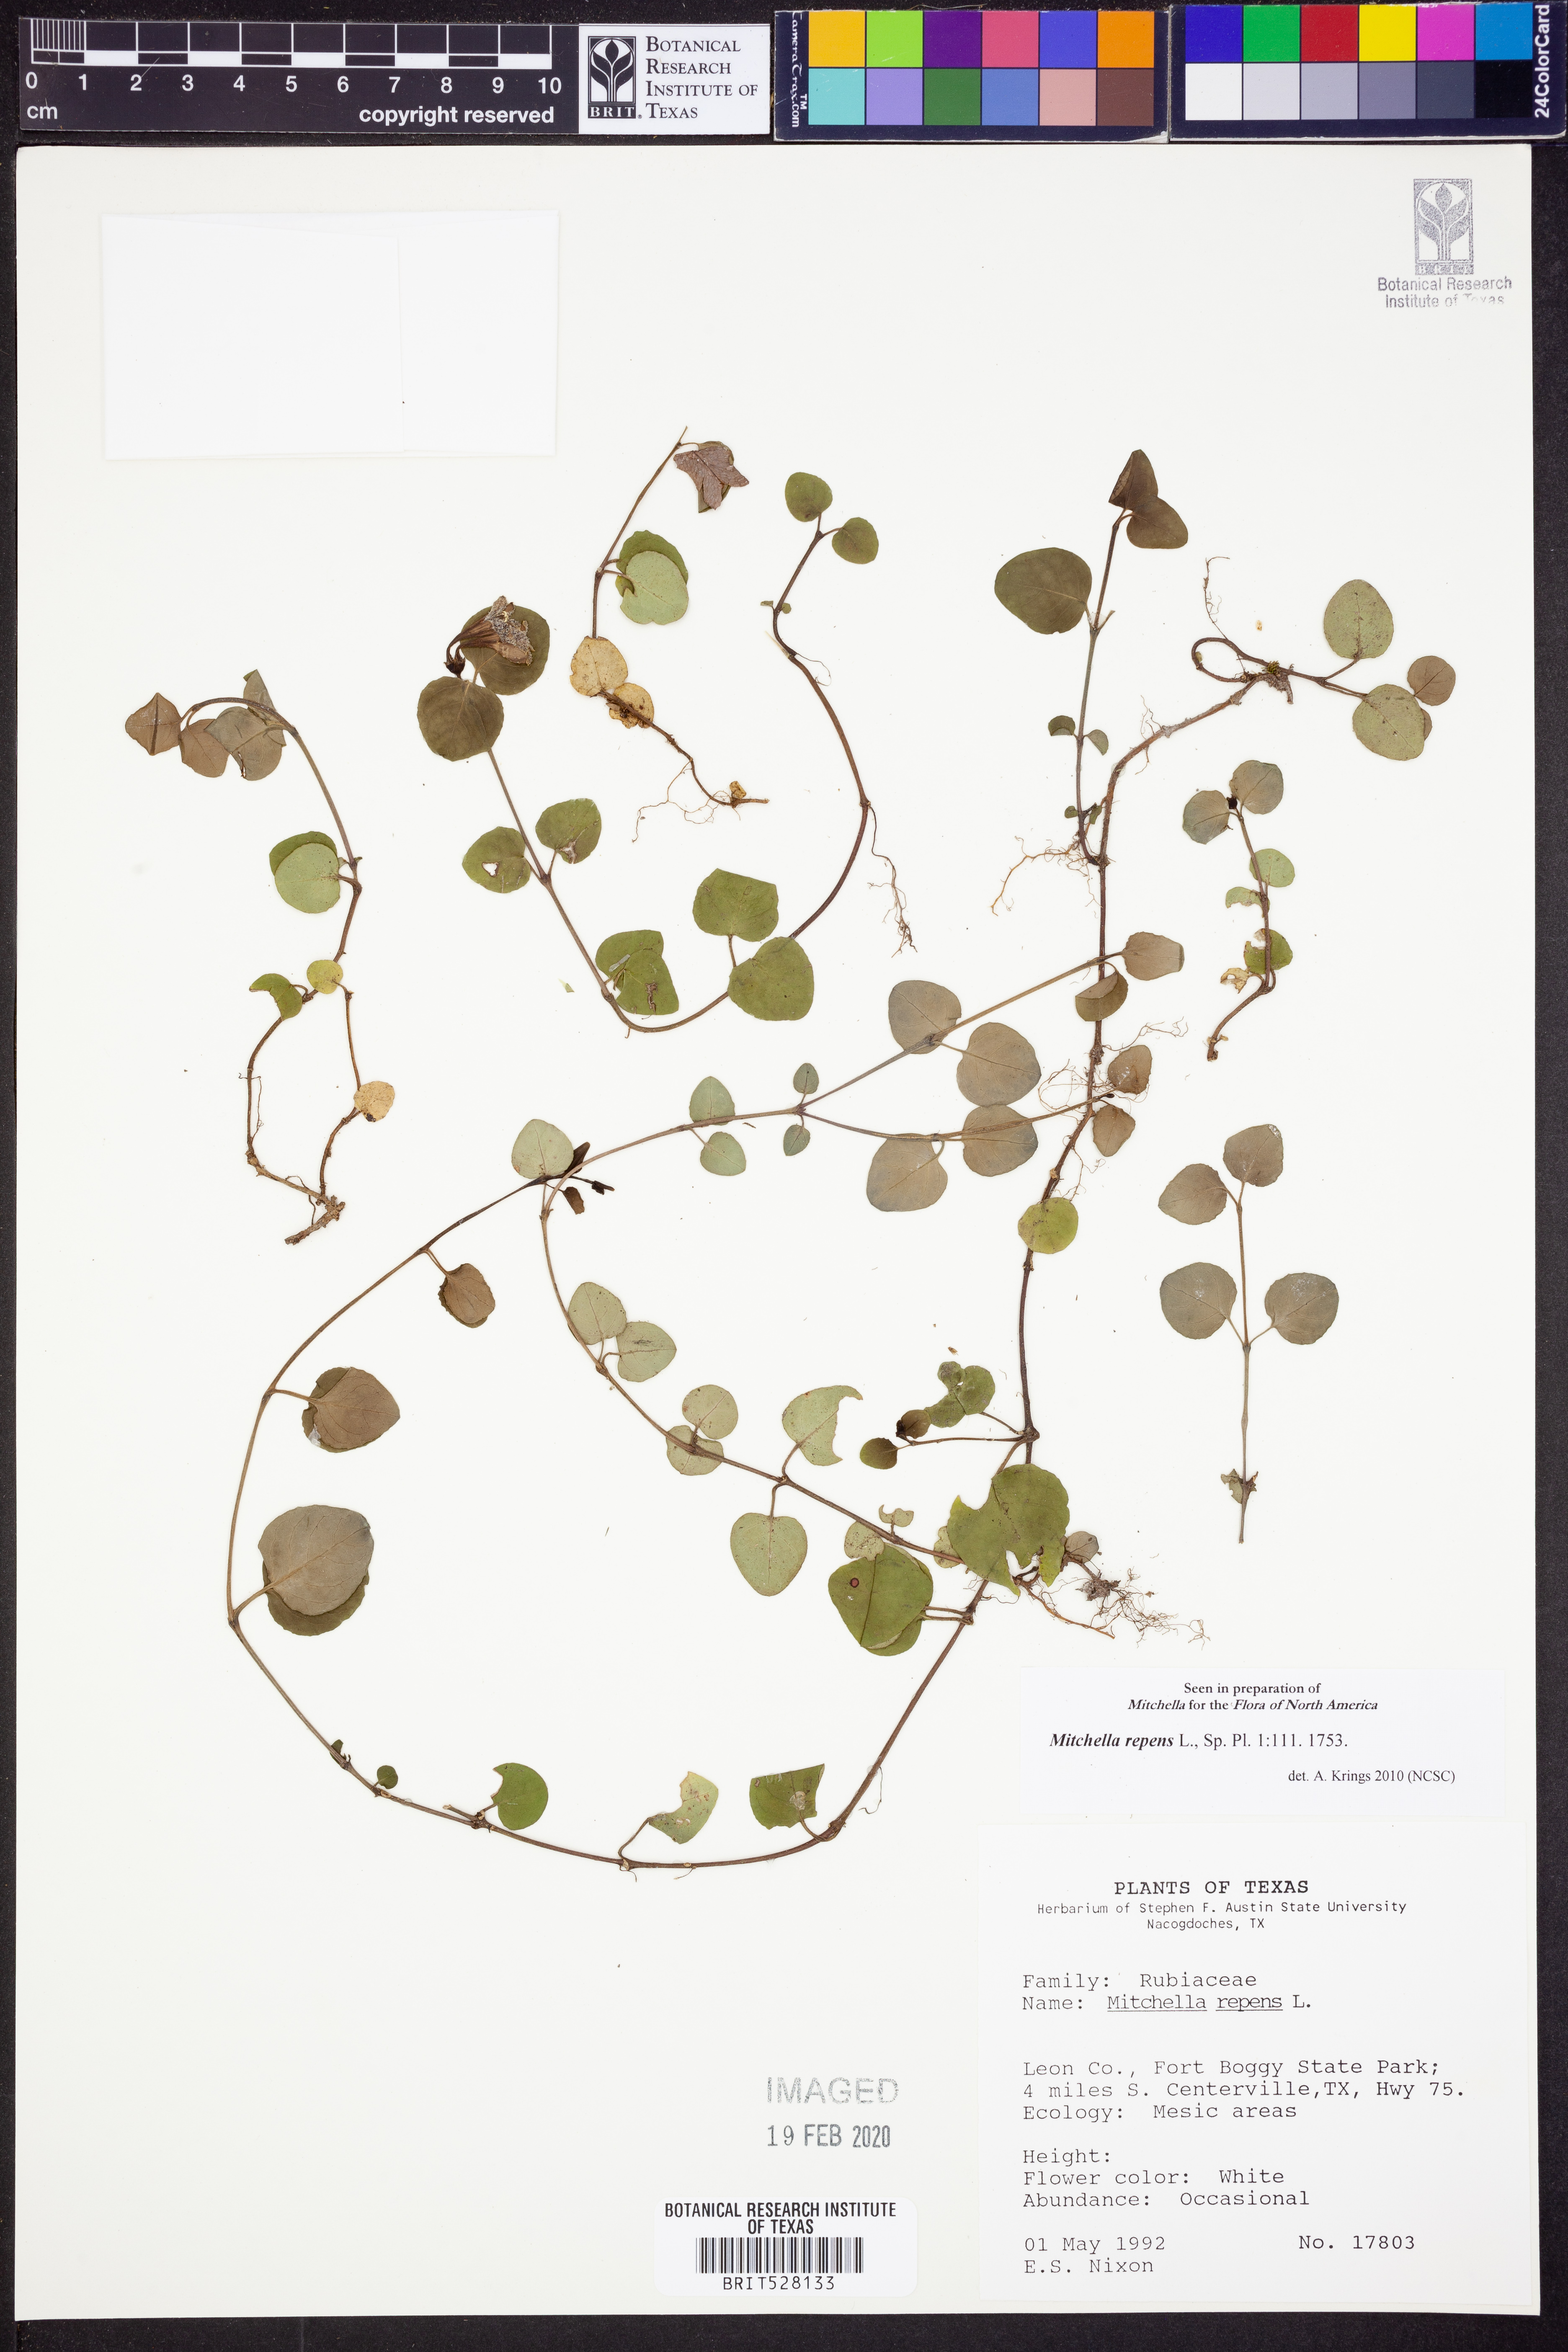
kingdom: Plantae
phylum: Tracheophyta
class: Magnoliopsida
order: Gentianales
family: Rubiaceae
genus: Mitchella
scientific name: Mitchella repens
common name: Partridge-berry
